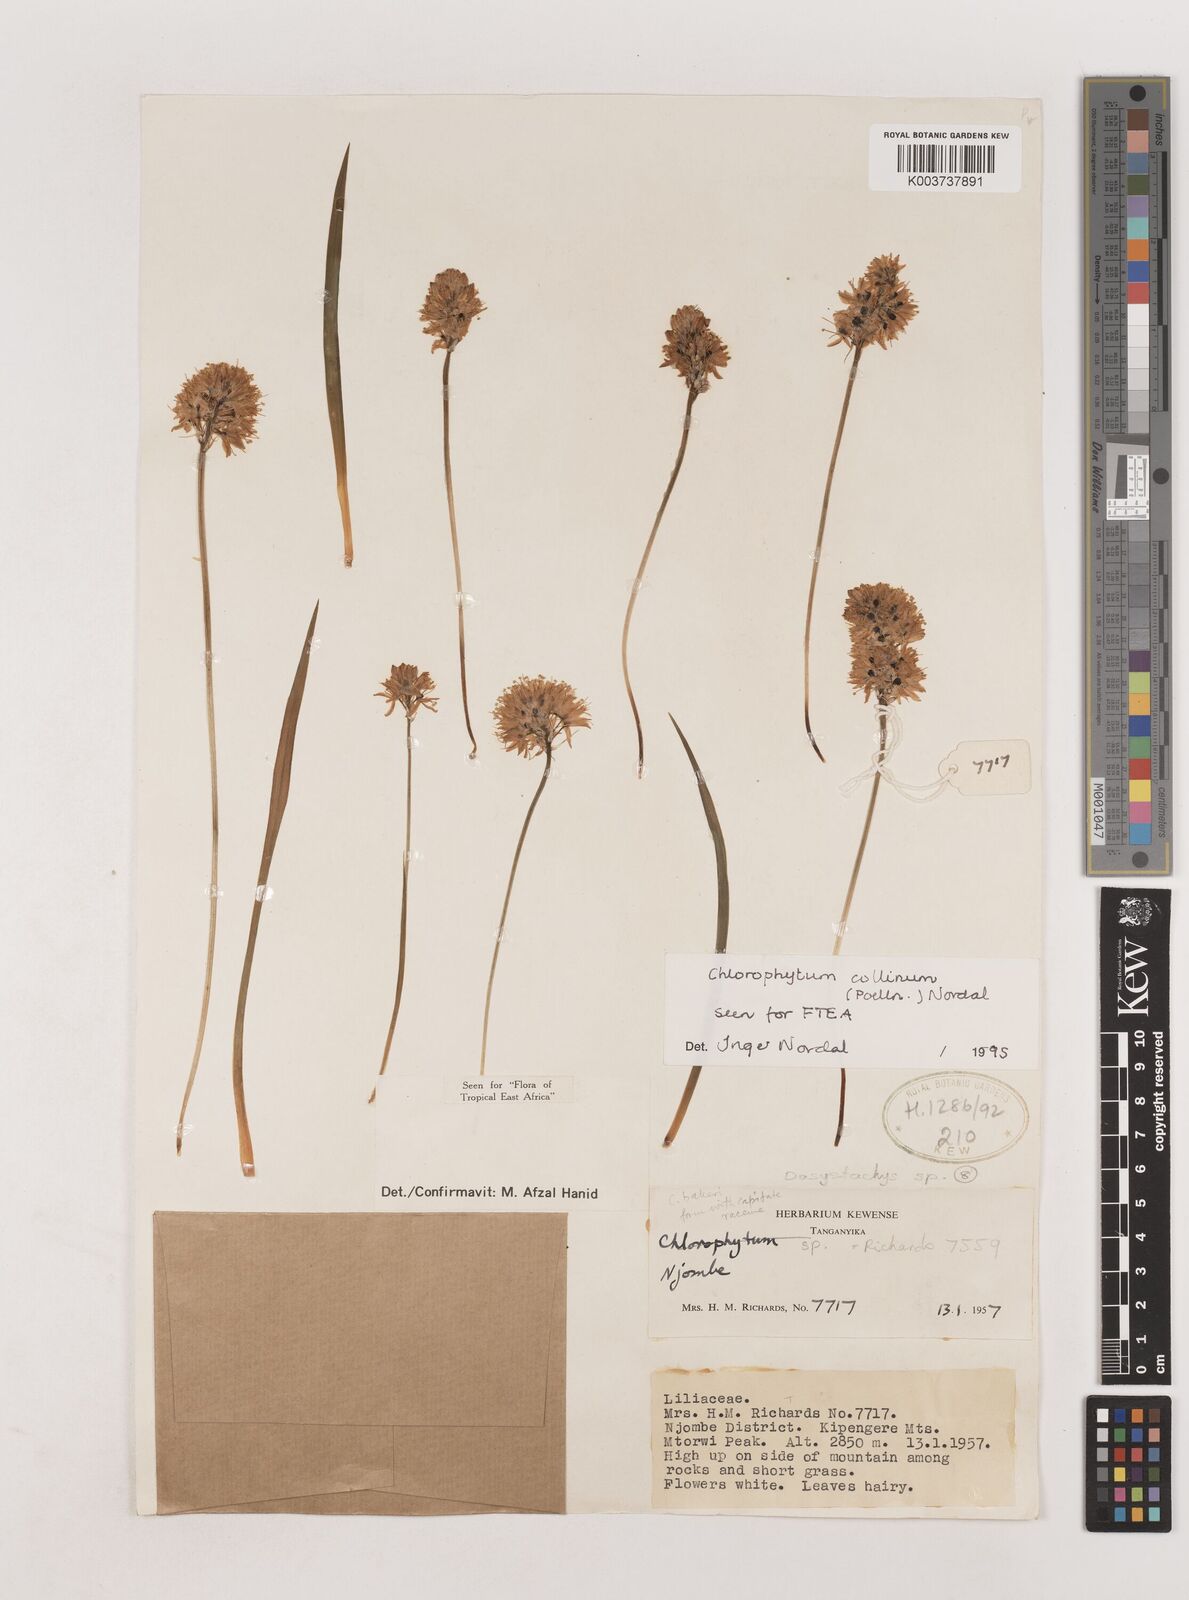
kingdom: Plantae
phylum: Tracheophyta
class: Liliopsida
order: Asparagales
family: Asparagaceae
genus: Chlorophytum
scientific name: Chlorophytum collinum
